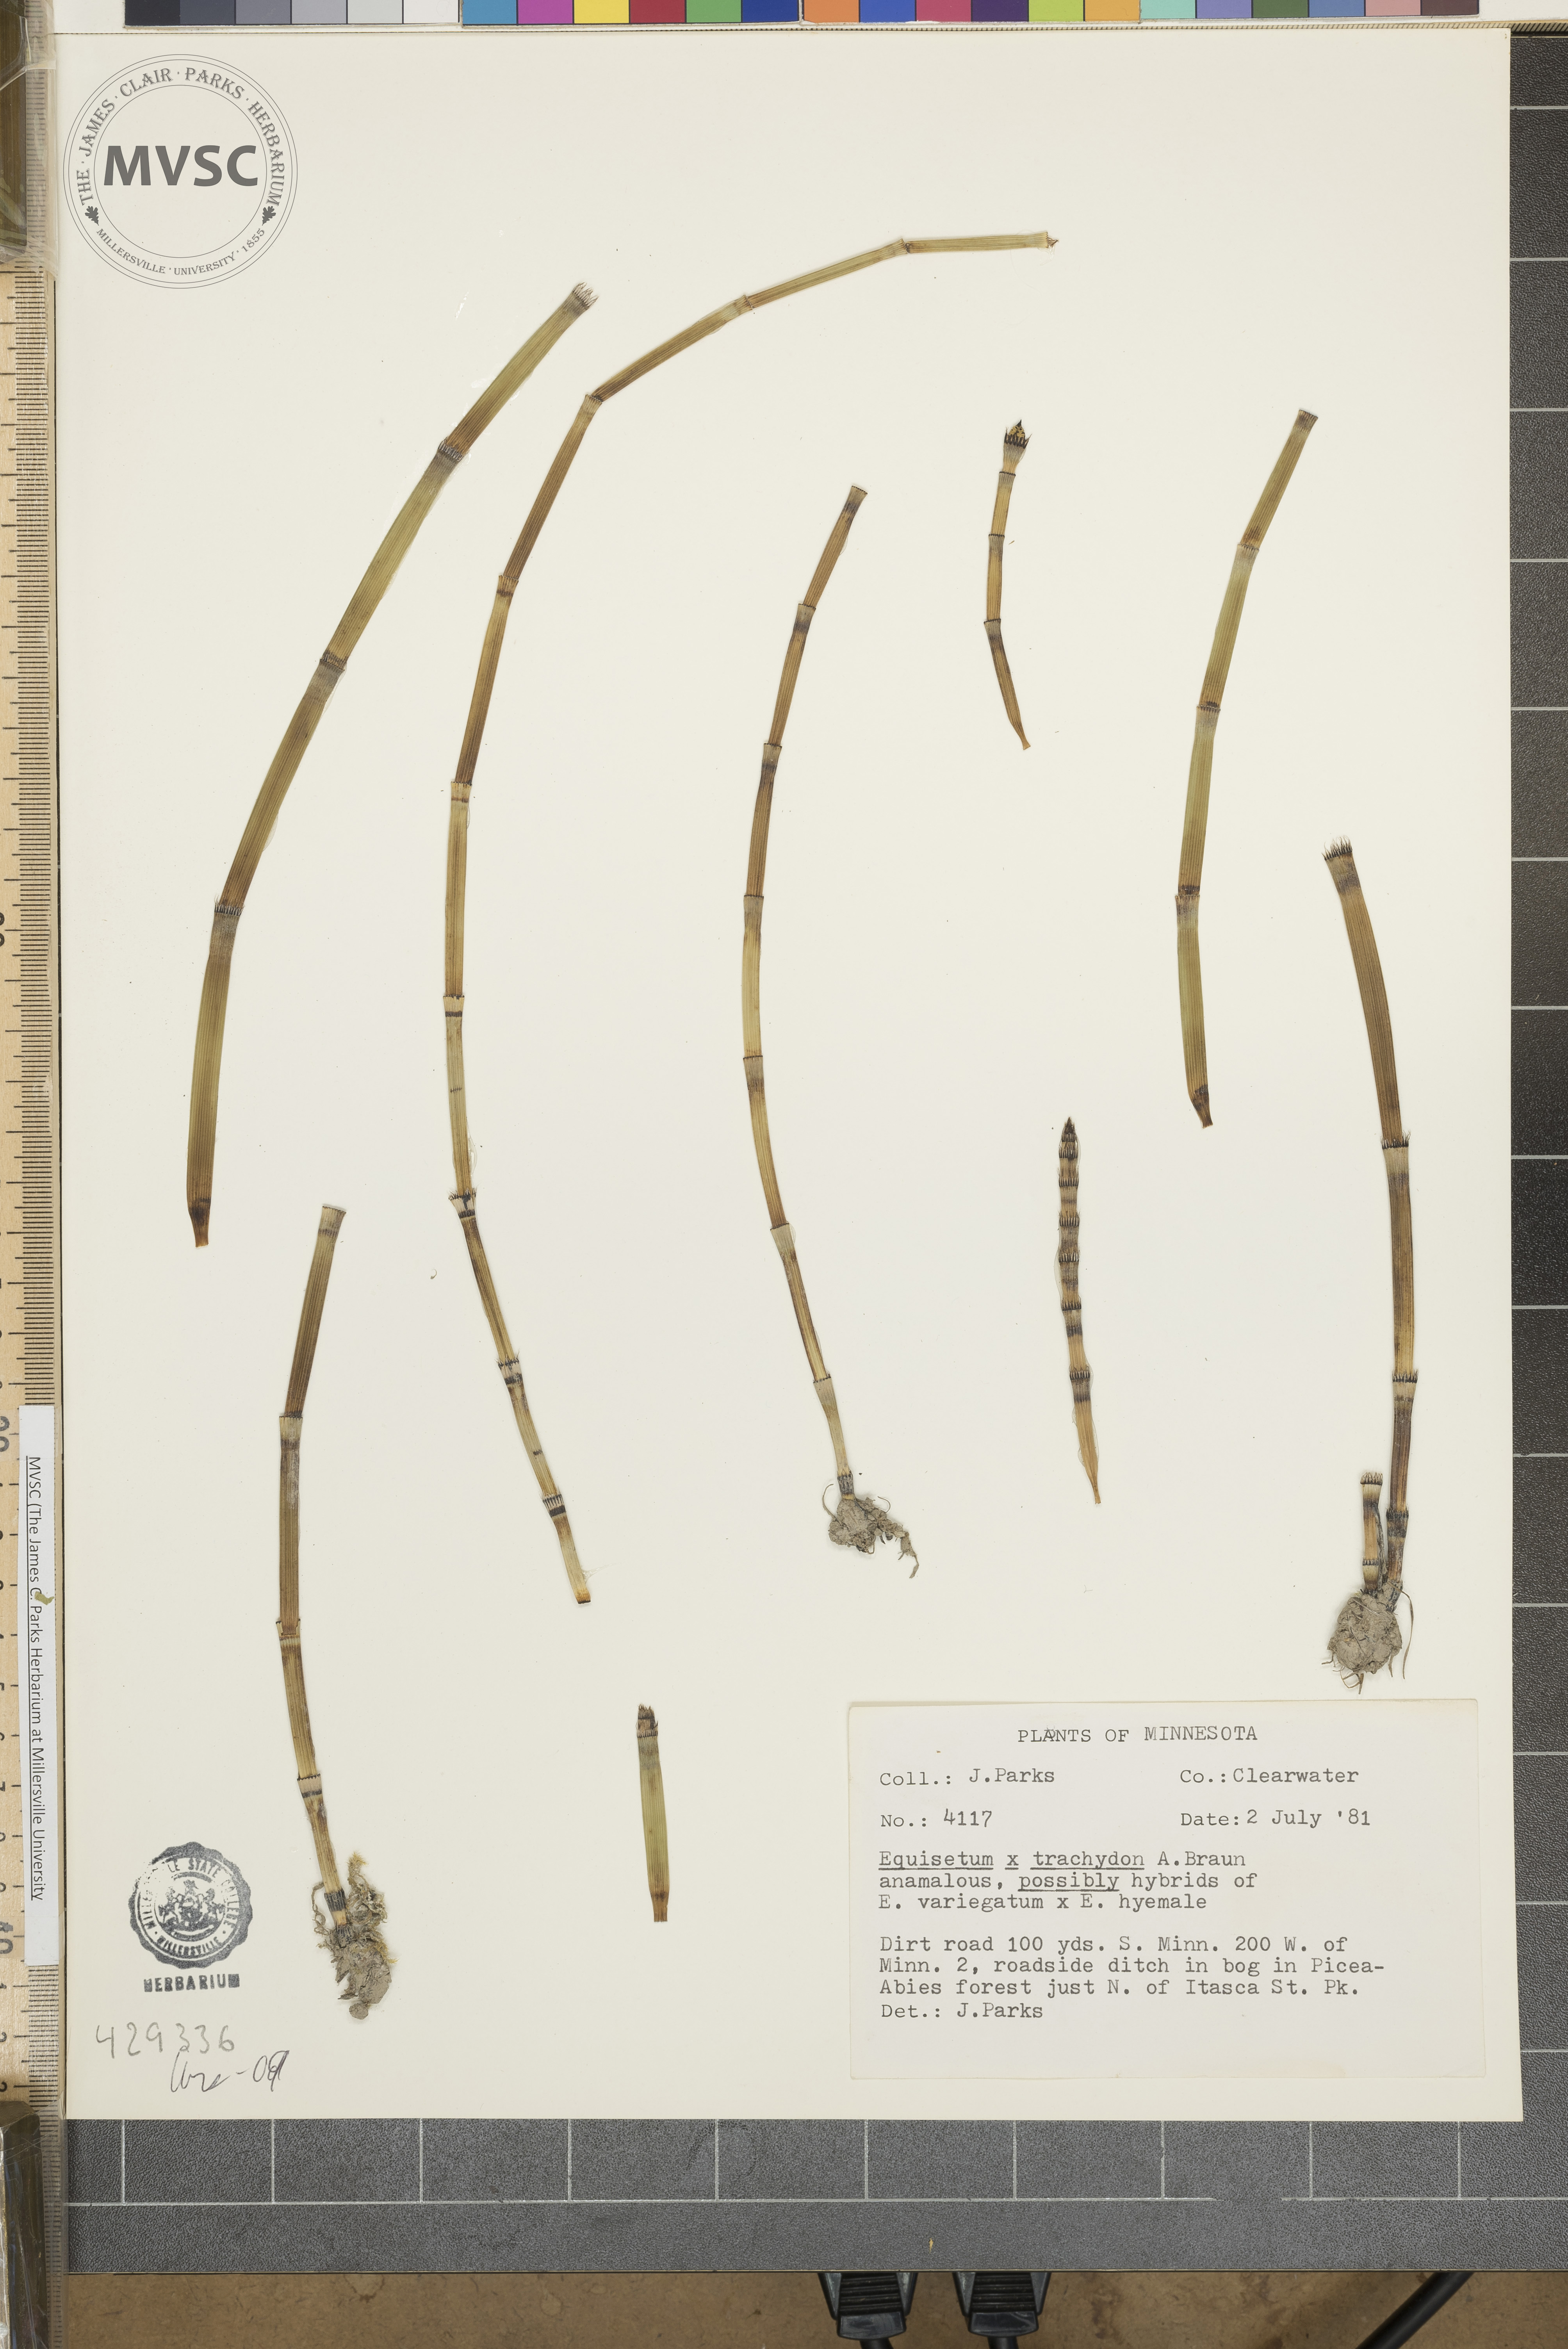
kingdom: Plantae
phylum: Tracheophyta
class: Polypodiopsida
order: Equisetales
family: Equisetaceae
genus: Equisetum
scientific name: Equisetum trachyodon
